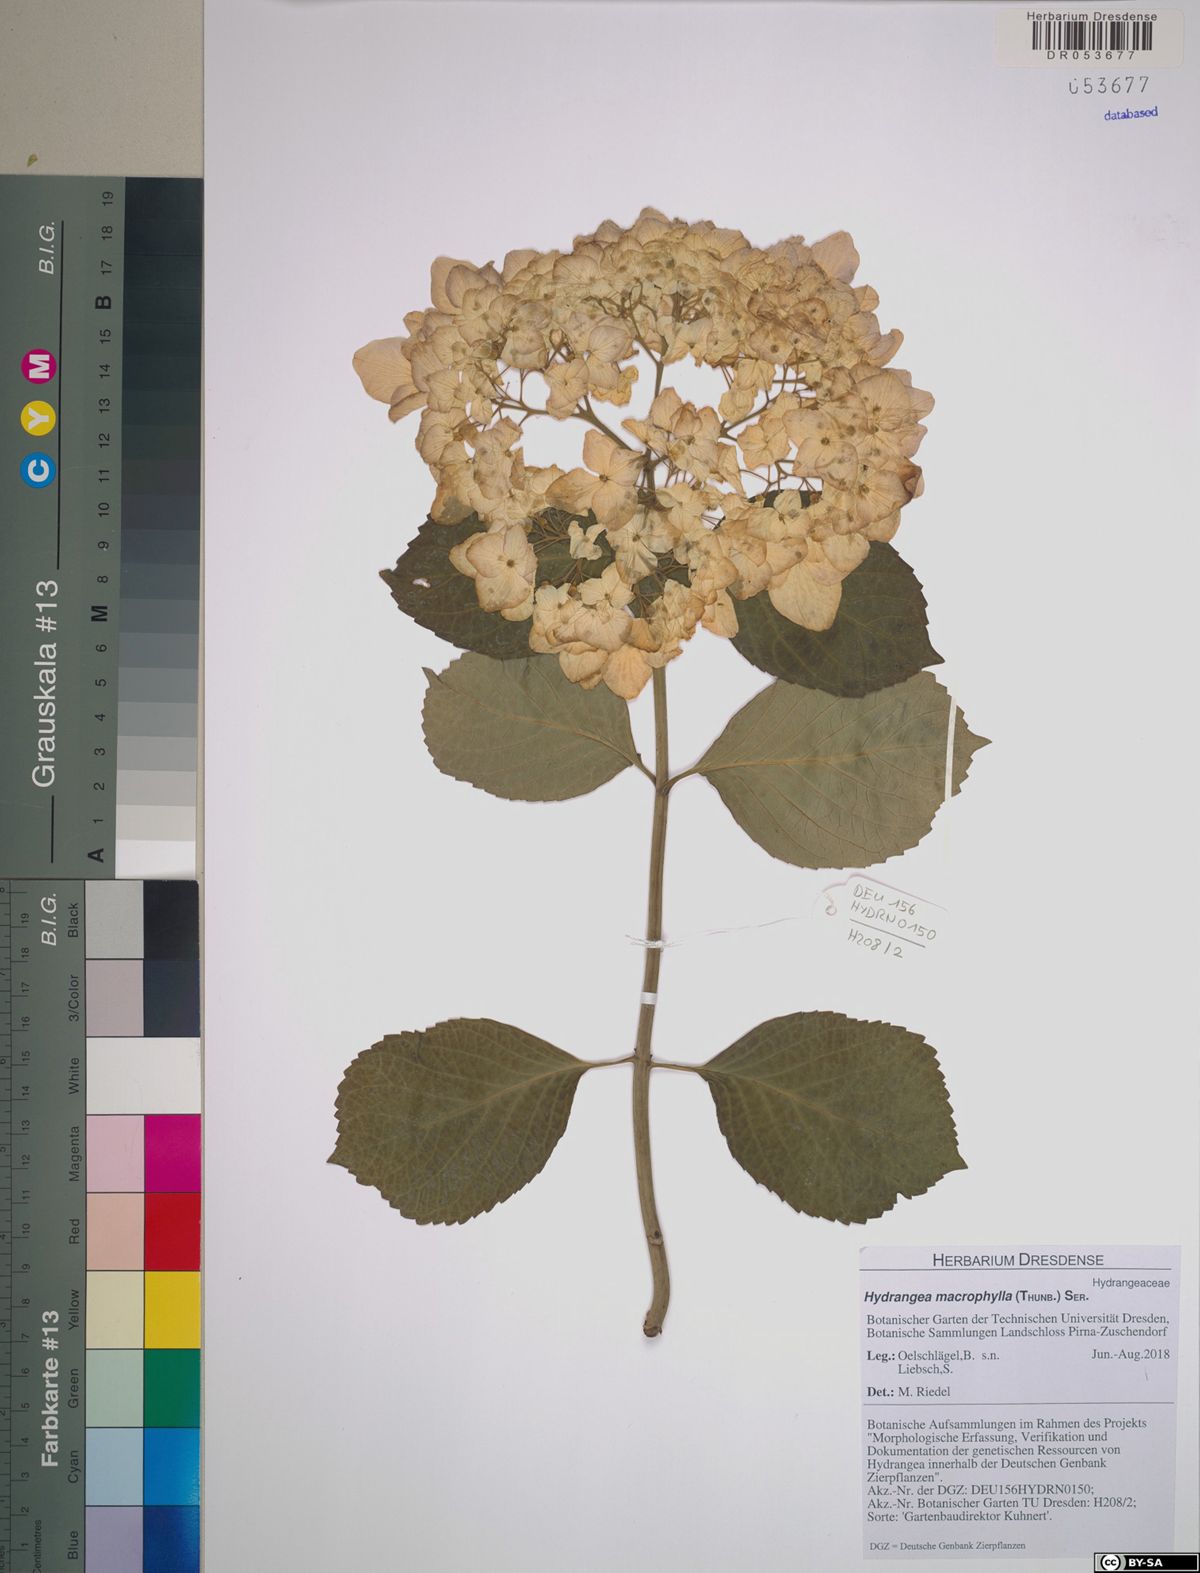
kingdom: Plantae
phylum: Tracheophyta
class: Magnoliopsida
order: Cornales
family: Hydrangeaceae
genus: Hydrangea
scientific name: Hydrangea macrophylla
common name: Hydrangea
